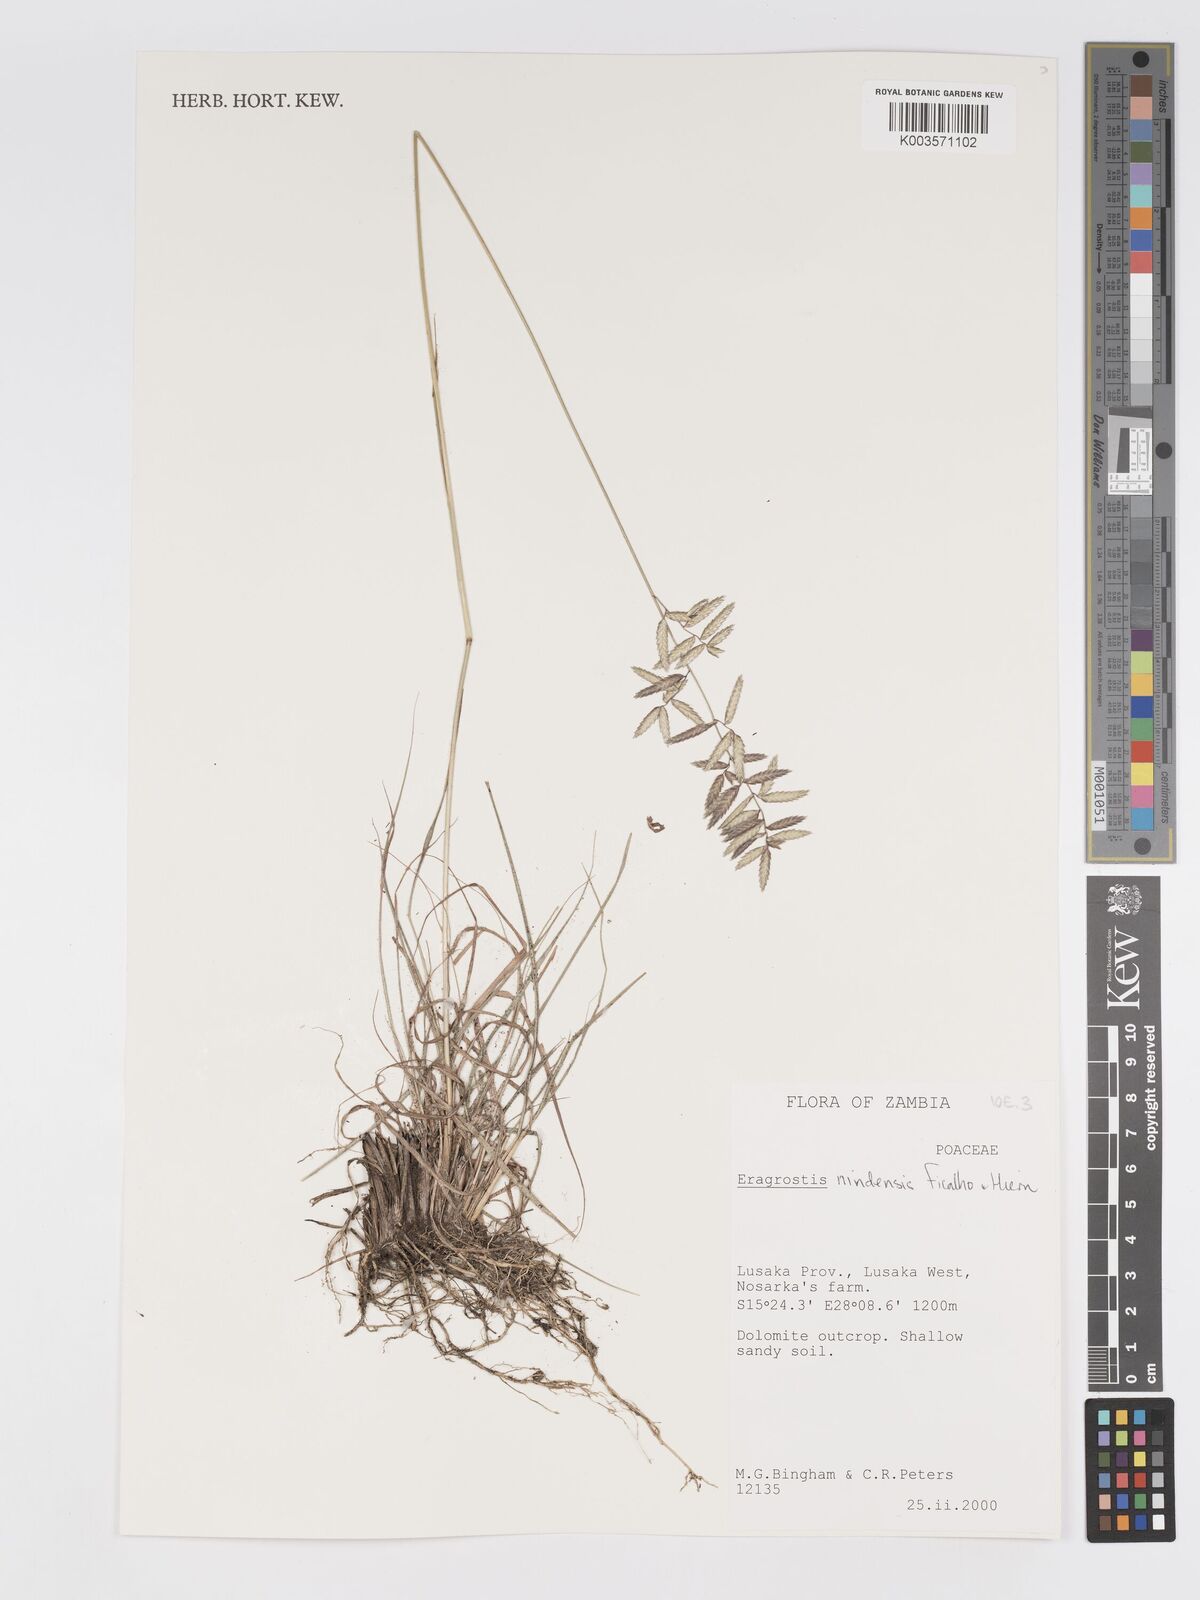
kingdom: Plantae
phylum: Tracheophyta
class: Liliopsida
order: Poales
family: Poaceae
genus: Eragrostis
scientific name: Eragrostis nindensis
